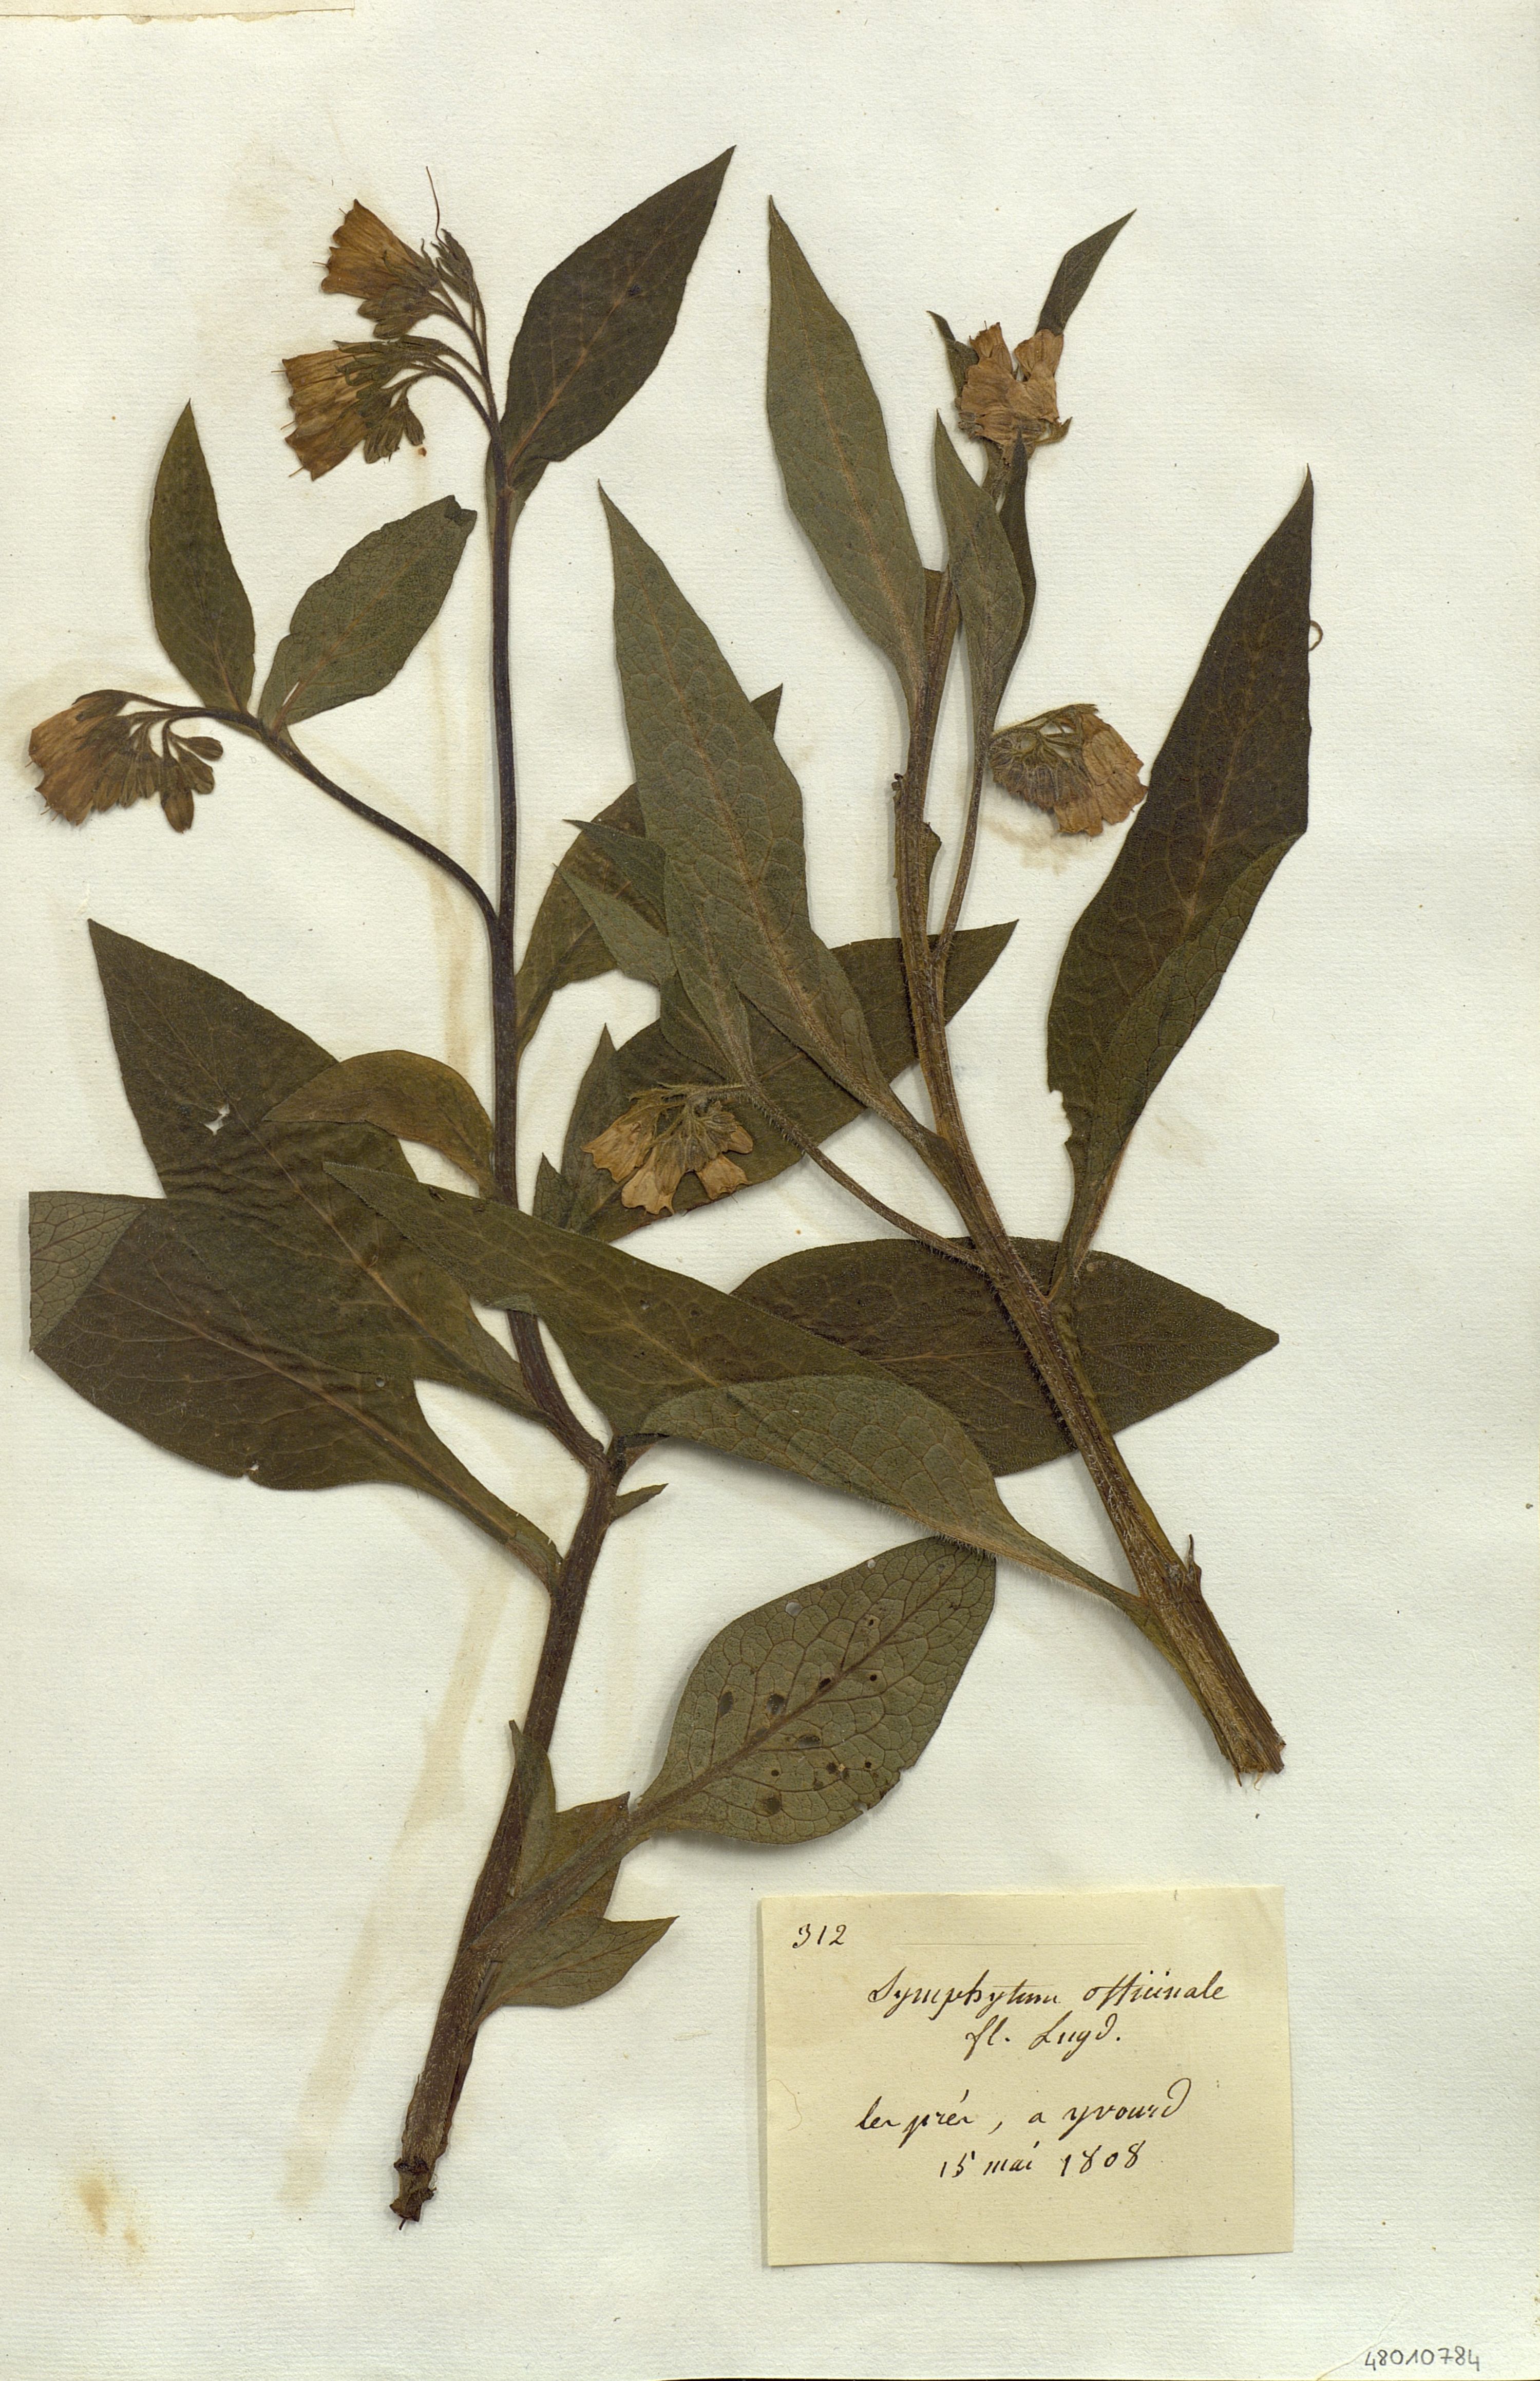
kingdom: Plantae
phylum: Tracheophyta
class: Magnoliopsida
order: Boraginales
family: Boraginaceae
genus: Symphytum
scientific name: Symphytum officinale
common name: Common comfrey
